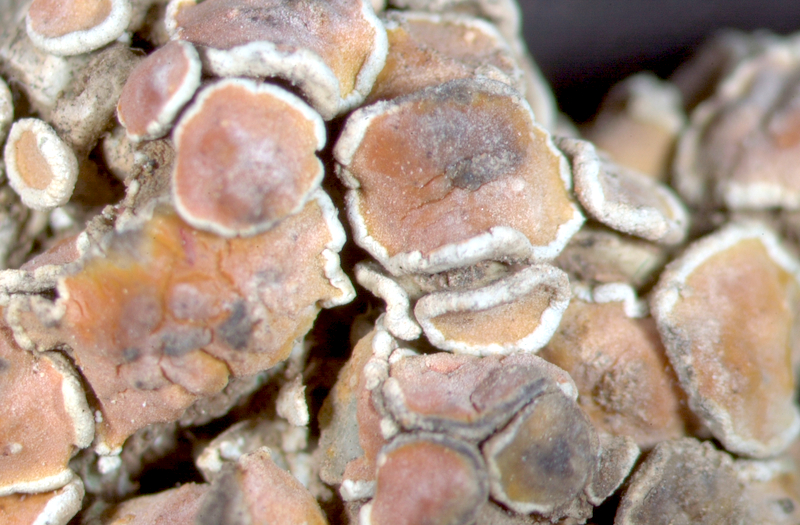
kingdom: Fungi
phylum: Ascomycota
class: Lecanoromycetes
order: Teloschistales
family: Teloschistaceae
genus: Dufourea
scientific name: Dufourea bonae-spei
